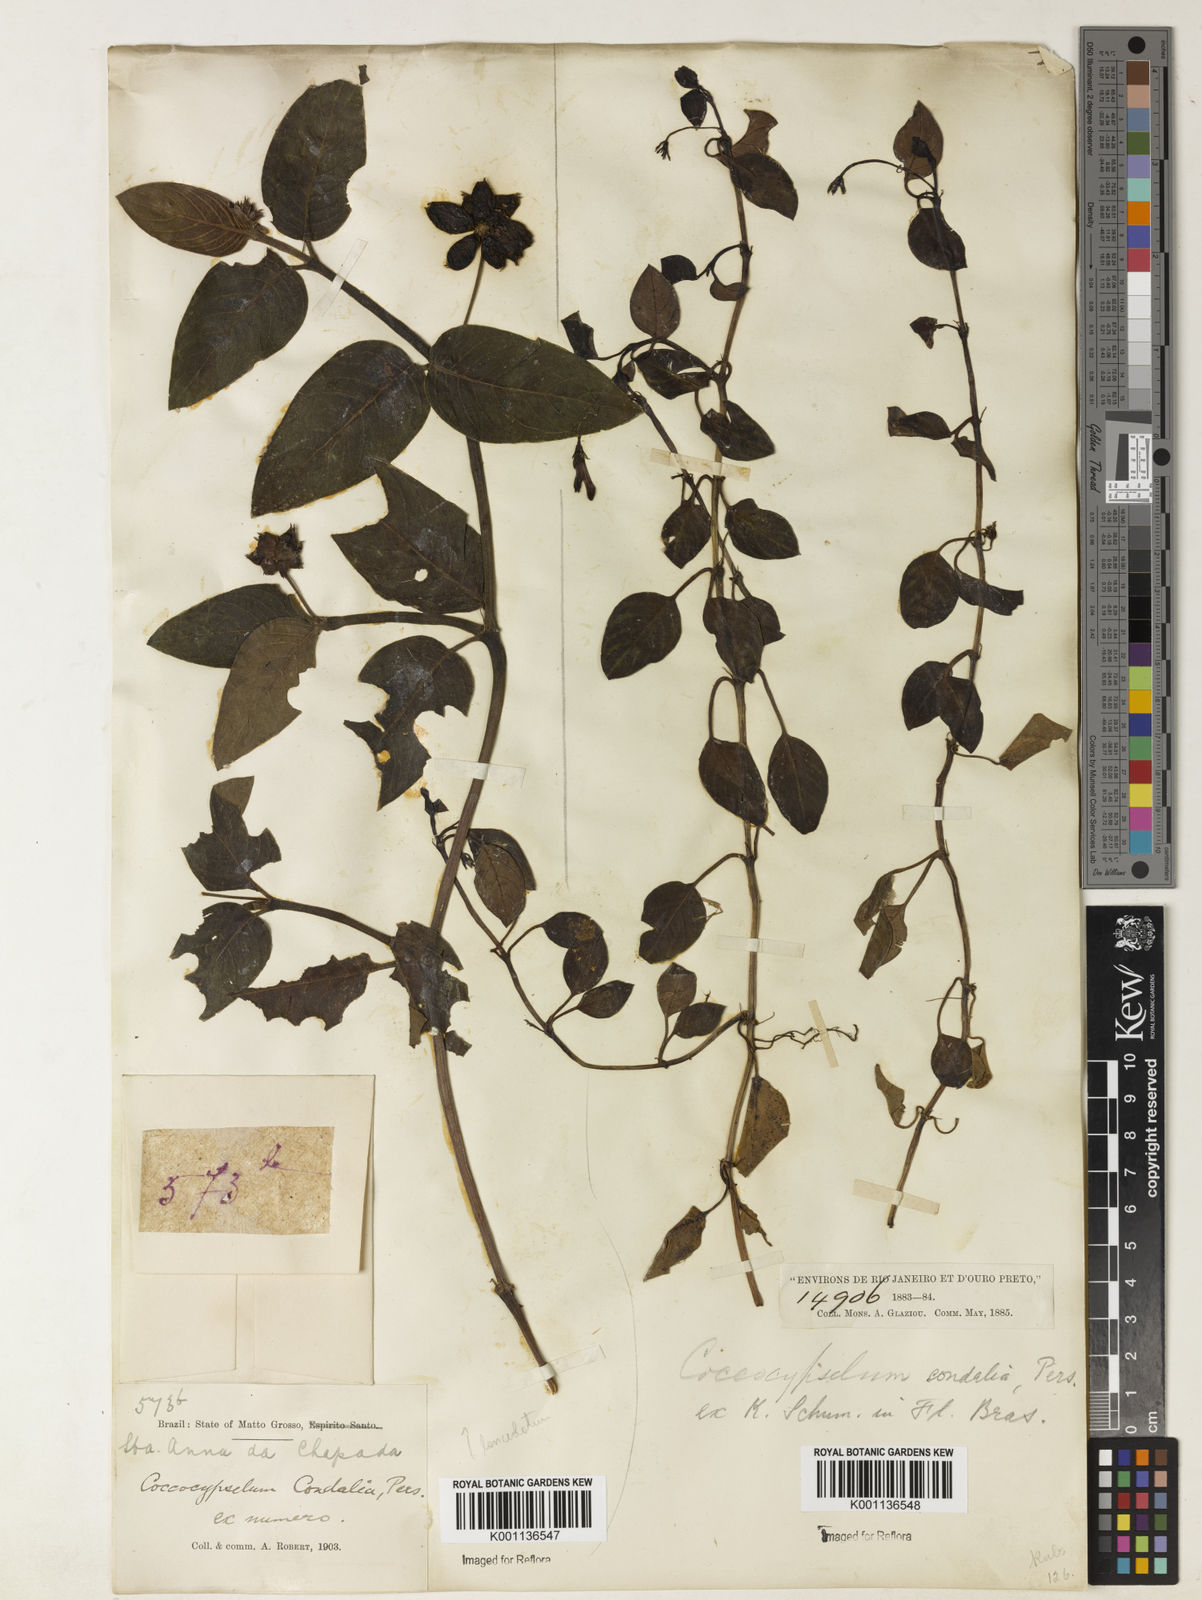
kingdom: Plantae
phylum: Tracheophyta
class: Magnoliopsida
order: Gentianales
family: Rubiaceae
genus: Coccocypselum
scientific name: Coccocypselum condalia
